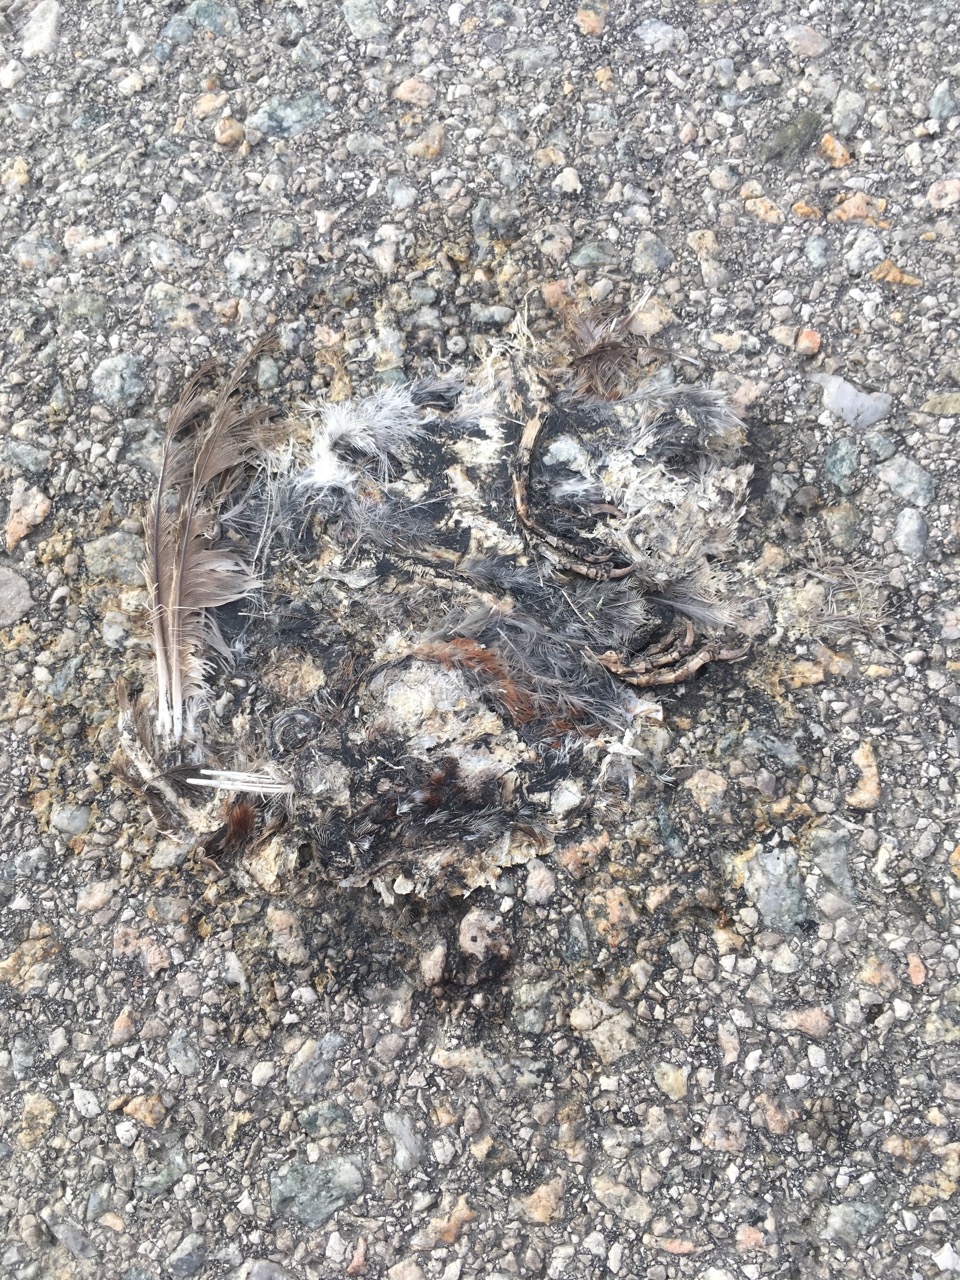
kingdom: Animalia
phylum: Chordata
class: Aves
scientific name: Aves
